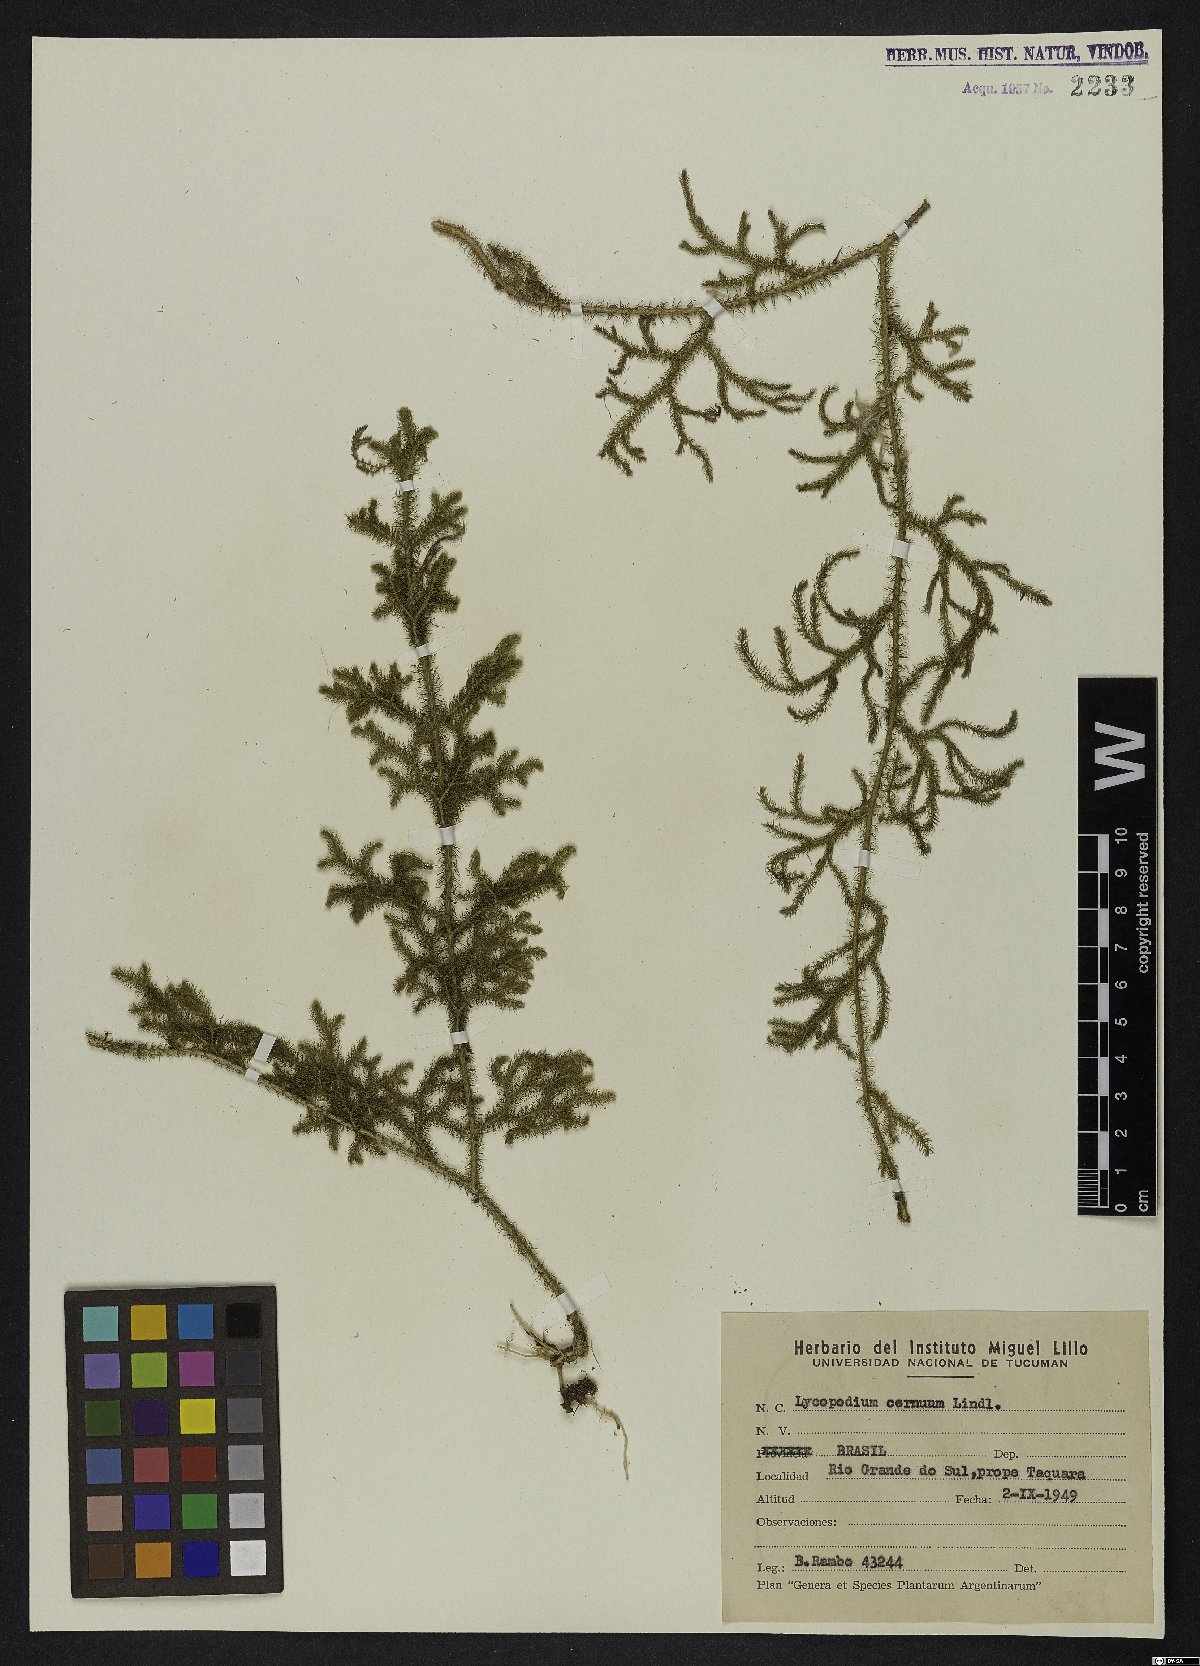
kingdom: Plantae
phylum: Tracheophyta
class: Lycopodiopsida
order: Lycopodiales
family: Lycopodiaceae
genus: Palhinhaea
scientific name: Palhinhaea cernua
